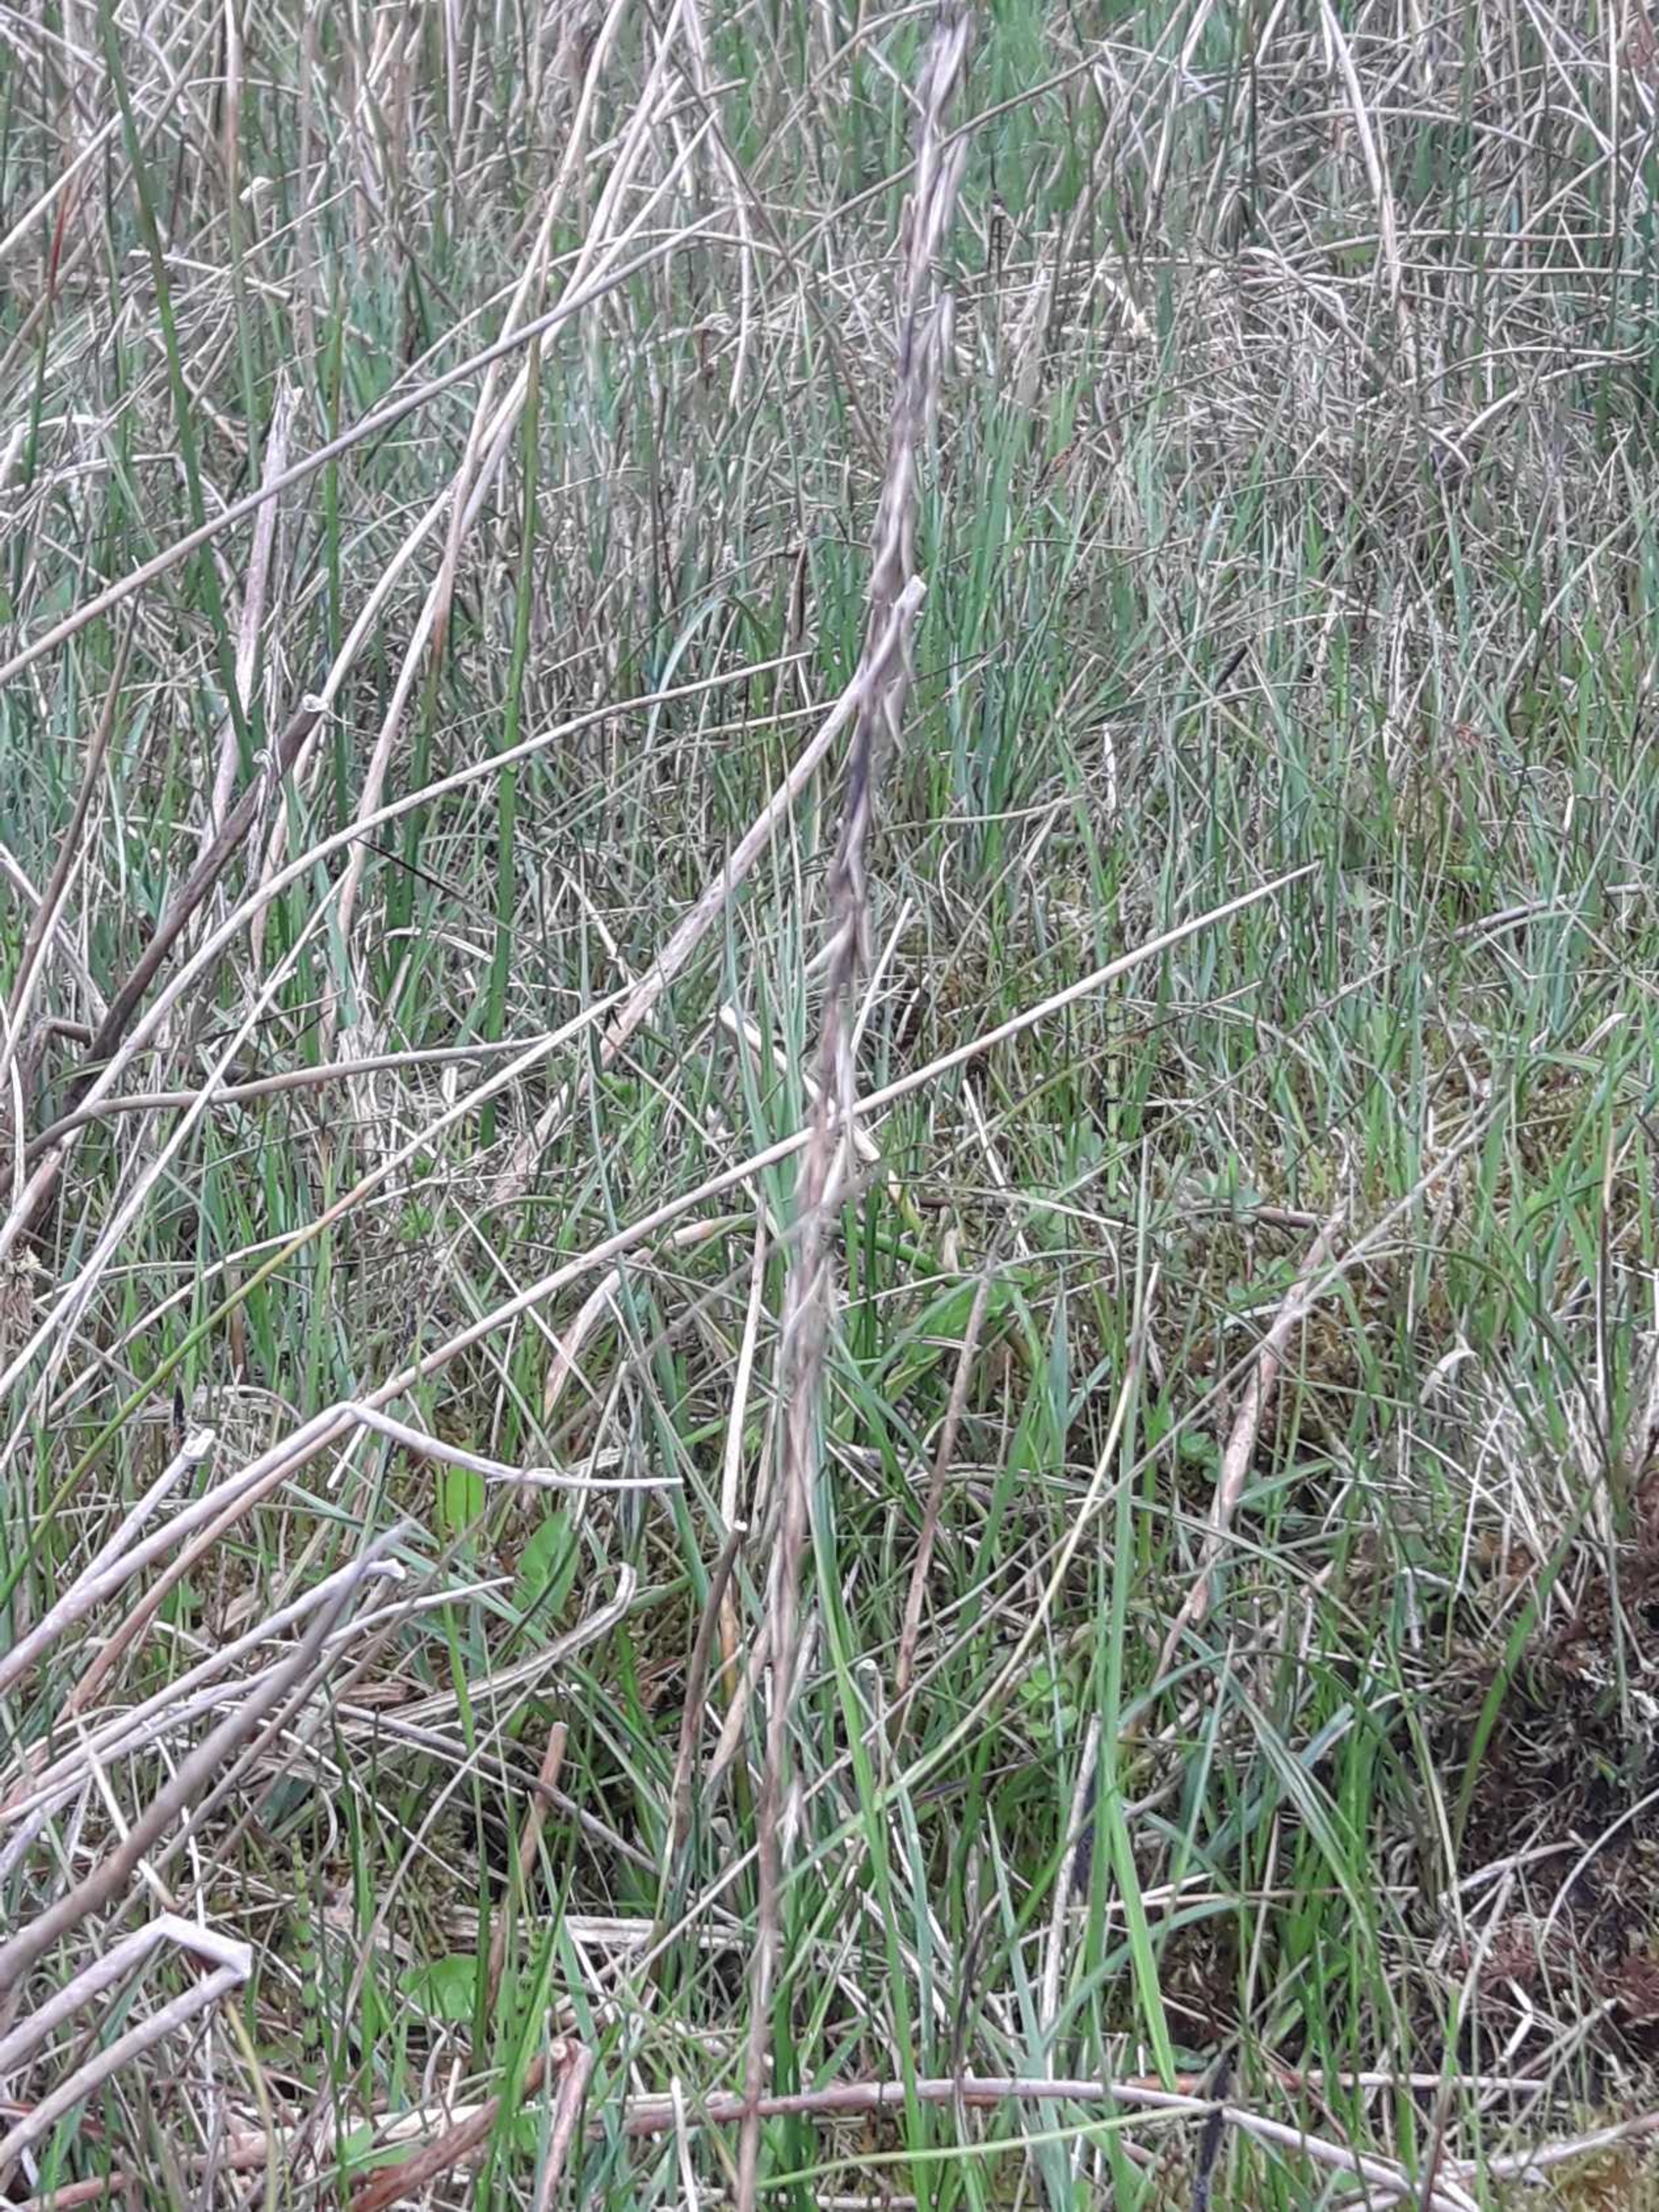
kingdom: Plantae
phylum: Tracheophyta
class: Liliopsida
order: Alismatales
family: Juncaginaceae
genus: Triglochin
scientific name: Triglochin palustris
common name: Kær-trehage
